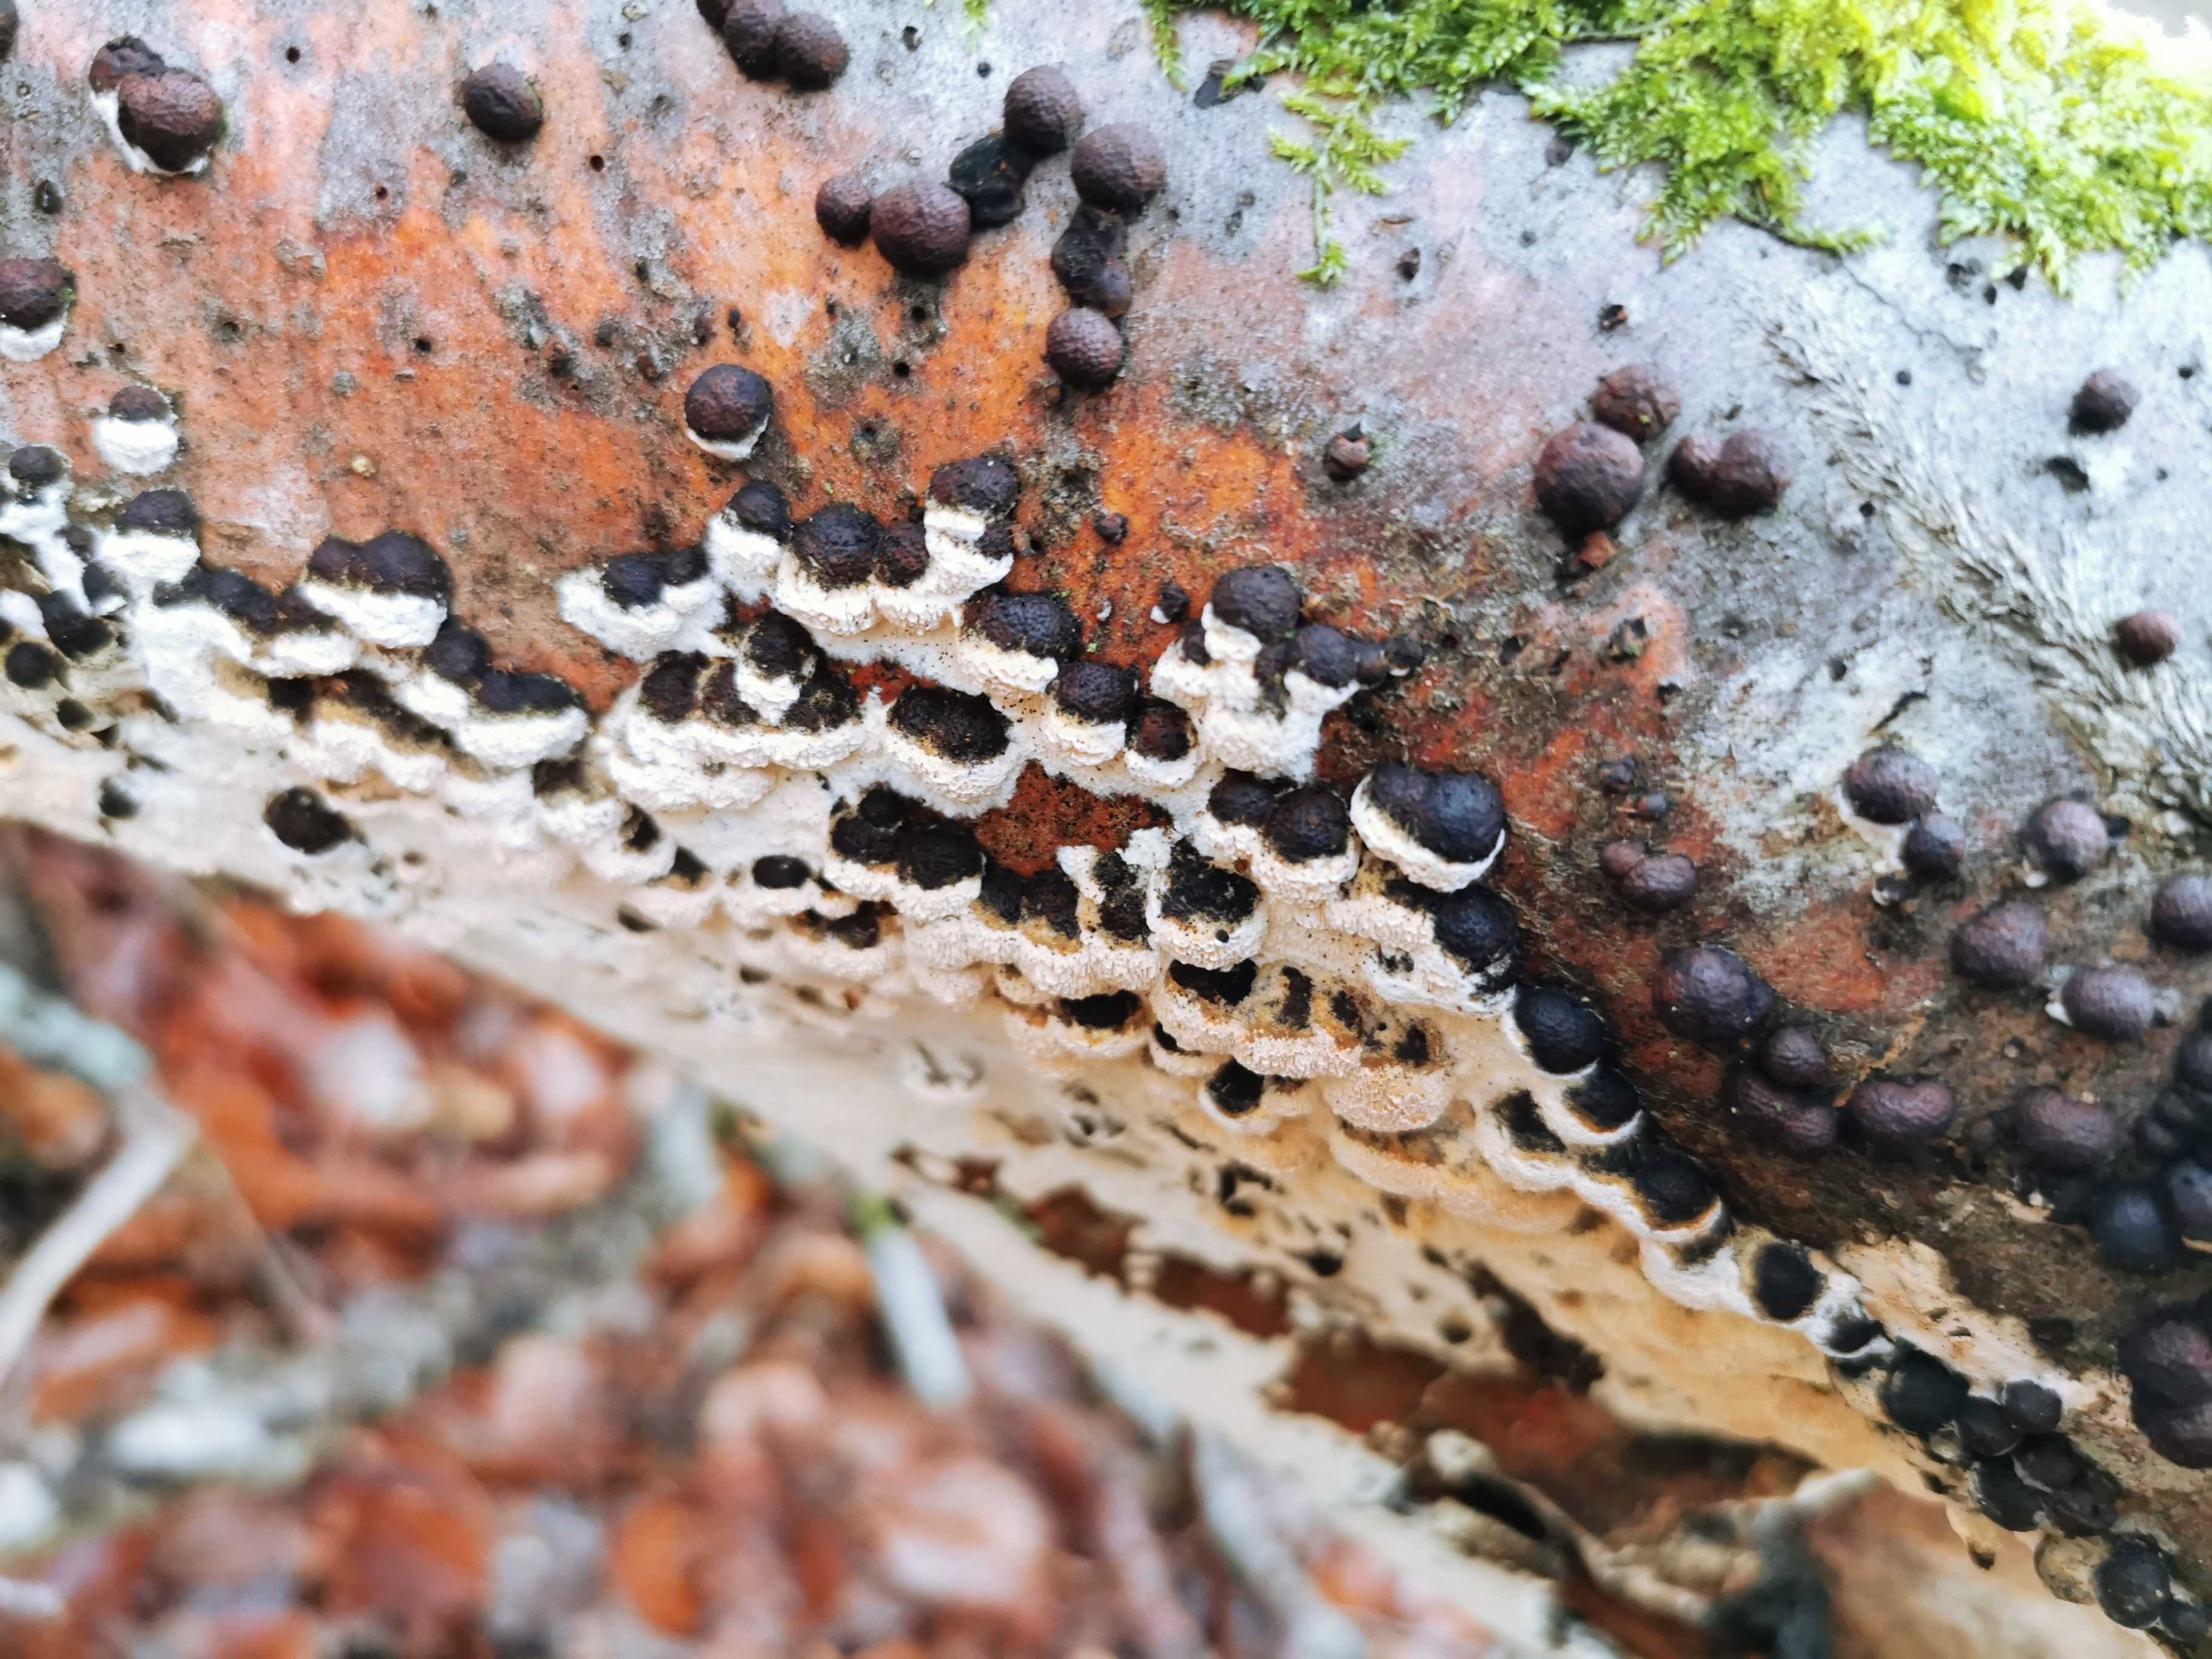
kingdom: Fungi
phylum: Ascomycota
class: Sordariomycetes
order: Xylariales
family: Hypoxylaceae
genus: Hypoxylon
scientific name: Hypoxylon fragiforme
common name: kuljordbær
